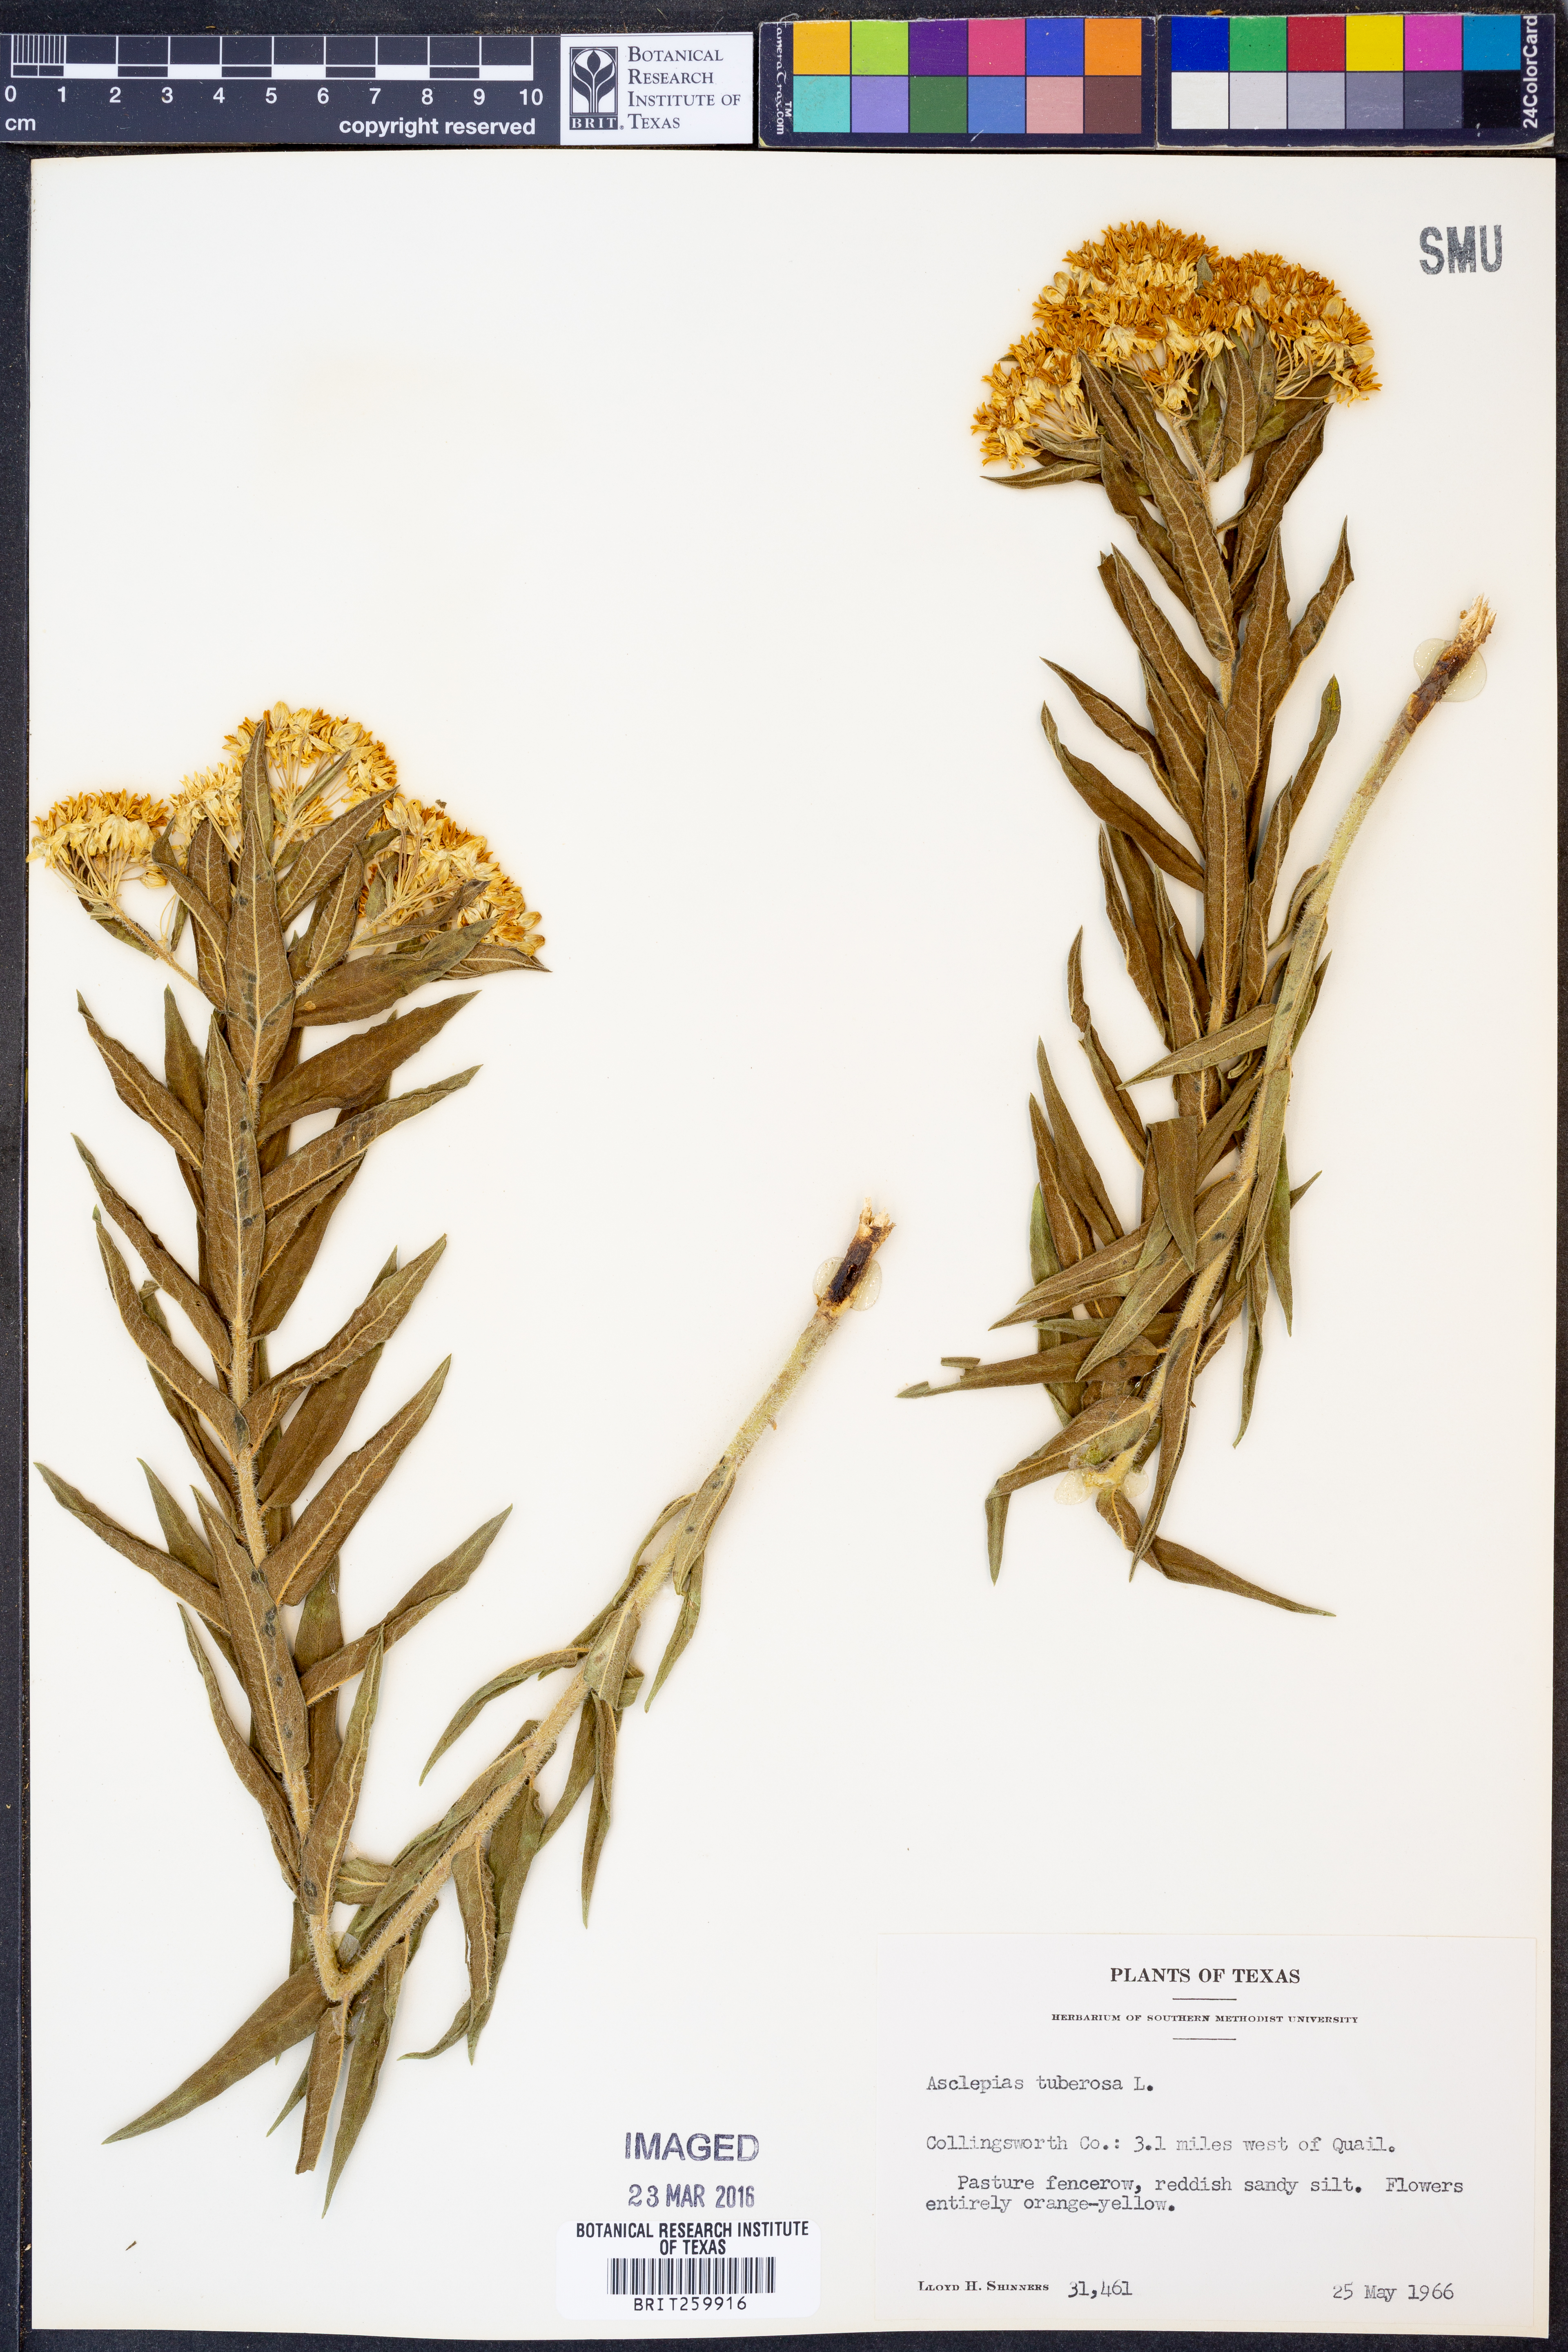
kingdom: Plantae
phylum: Tracheophyta
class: Magnoliopsida
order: Gentianales
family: Apocynaceae
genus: Asclepias
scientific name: Asclepias tuberosa
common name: Butterfly milkweed
